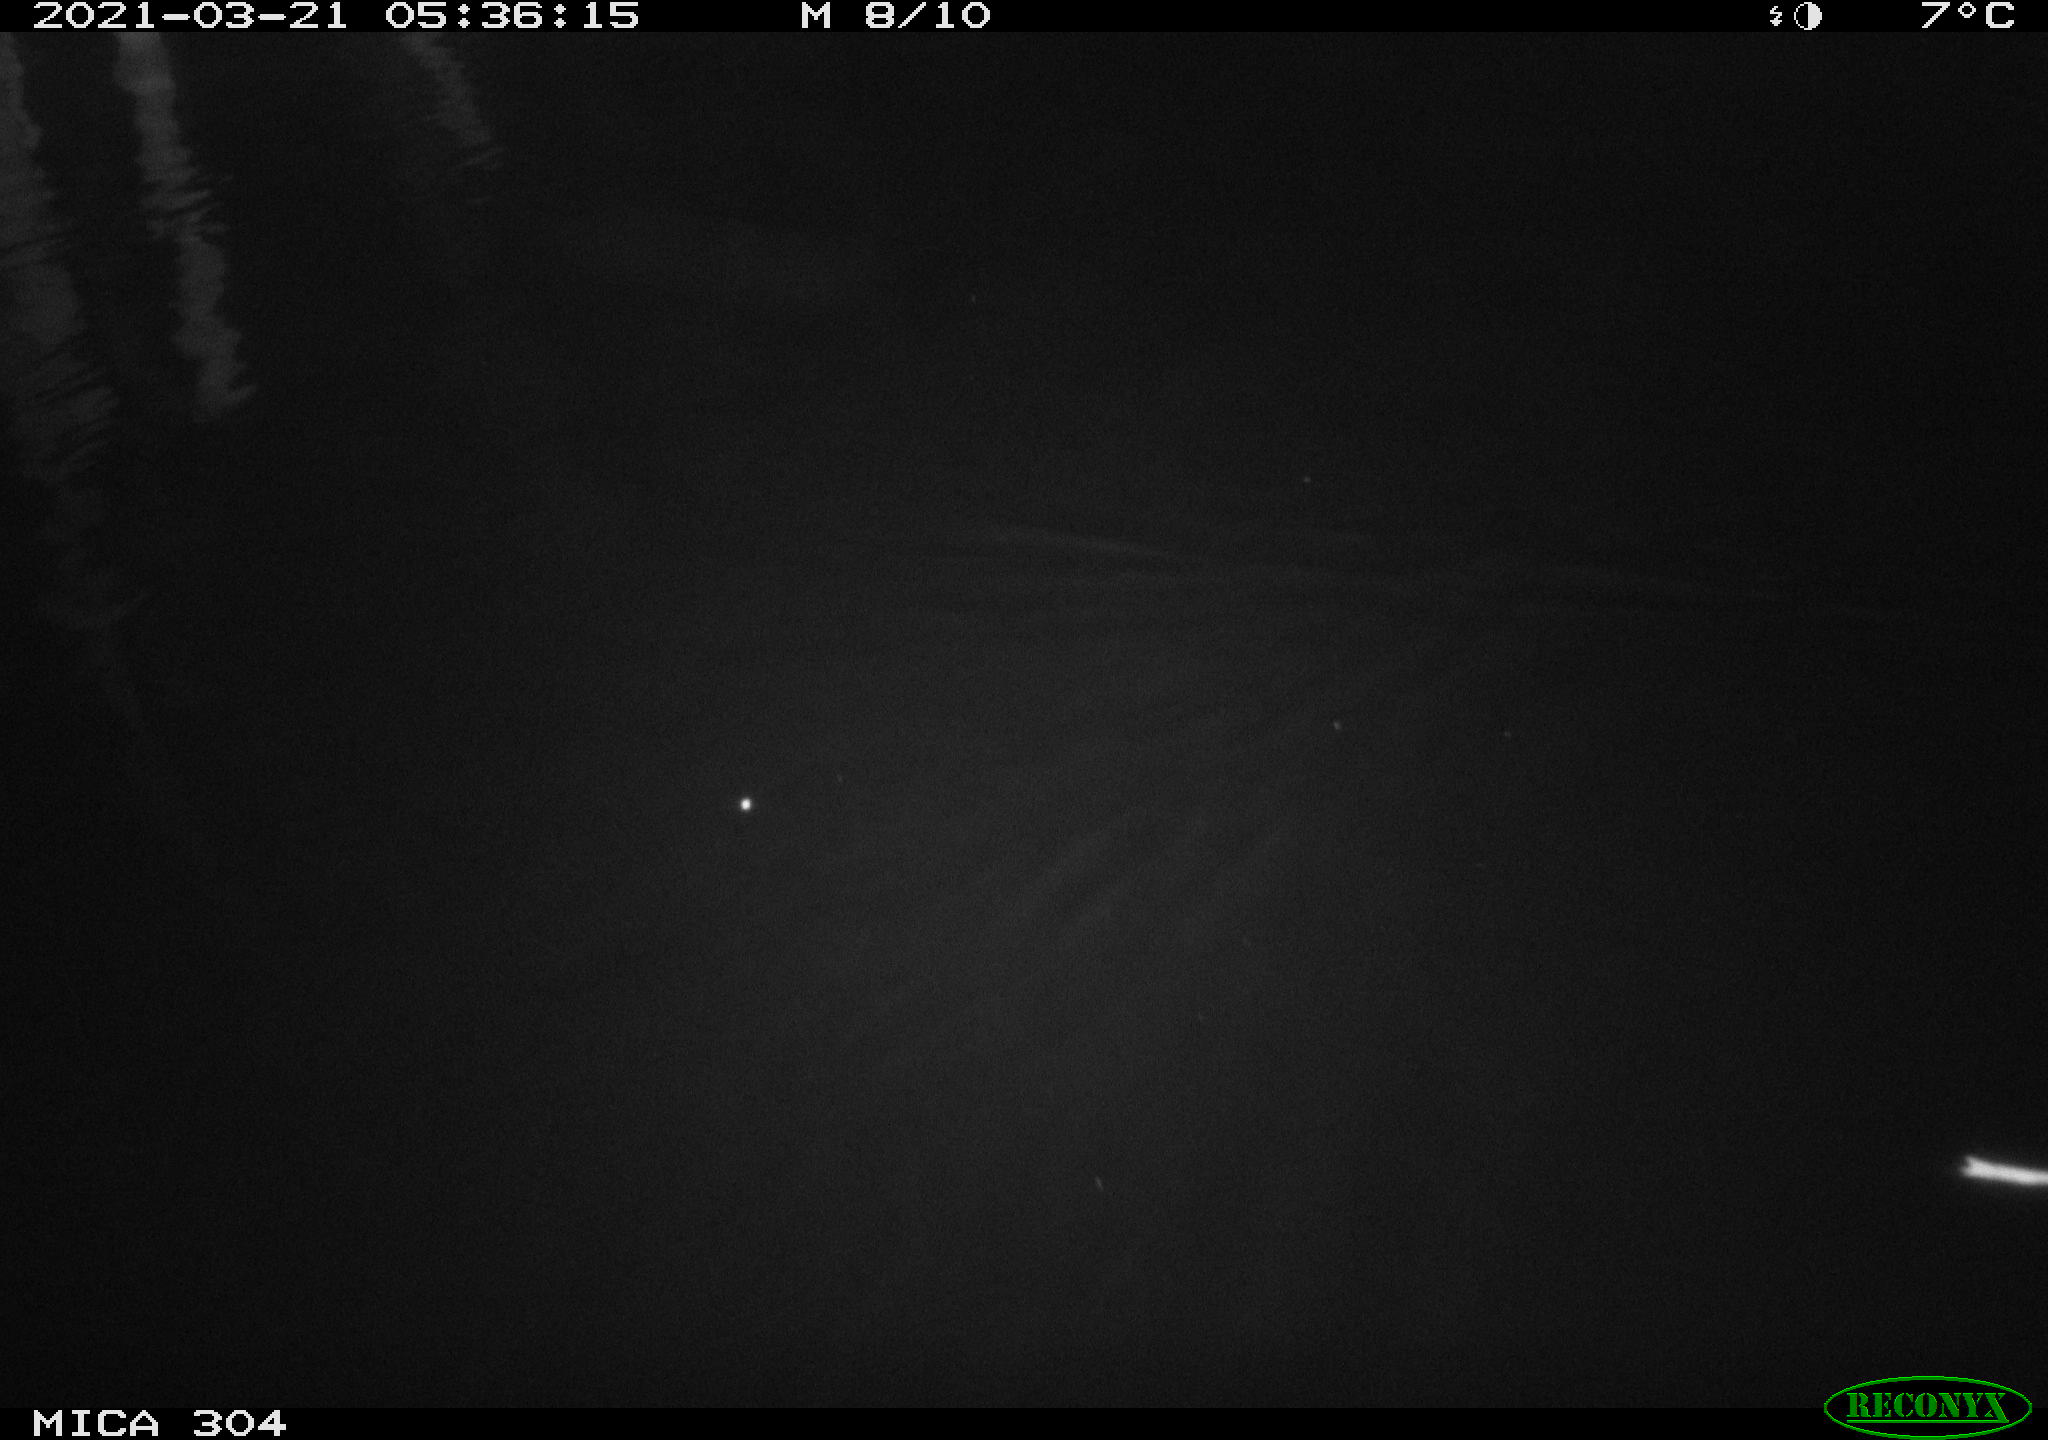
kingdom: Animalia
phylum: Chordata
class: Mammalia
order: Rodentia
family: Muridae
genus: Rattus
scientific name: Rattus norvegicus
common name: Brown rat
